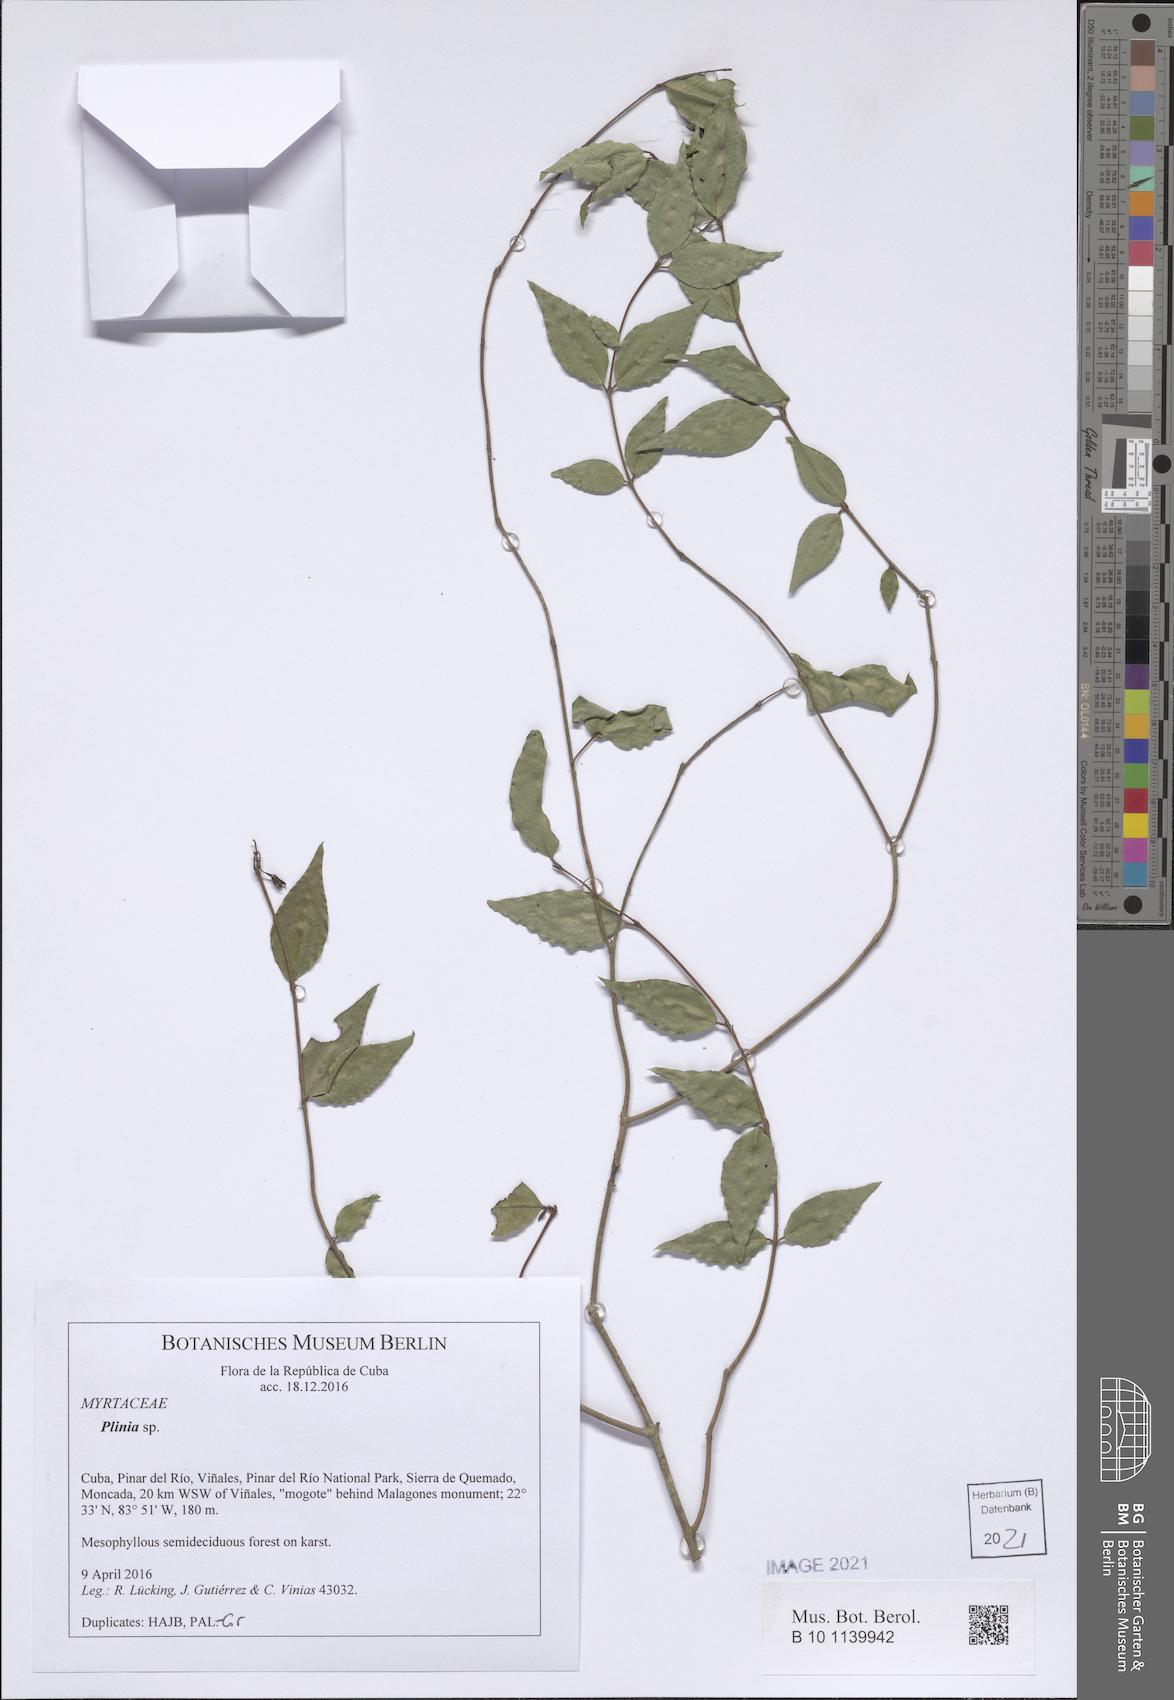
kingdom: Plantae
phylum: Tracheophyta
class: Magnoliopsida
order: Myrtales
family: Myrtaceae
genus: Plinia
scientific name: Plinia
